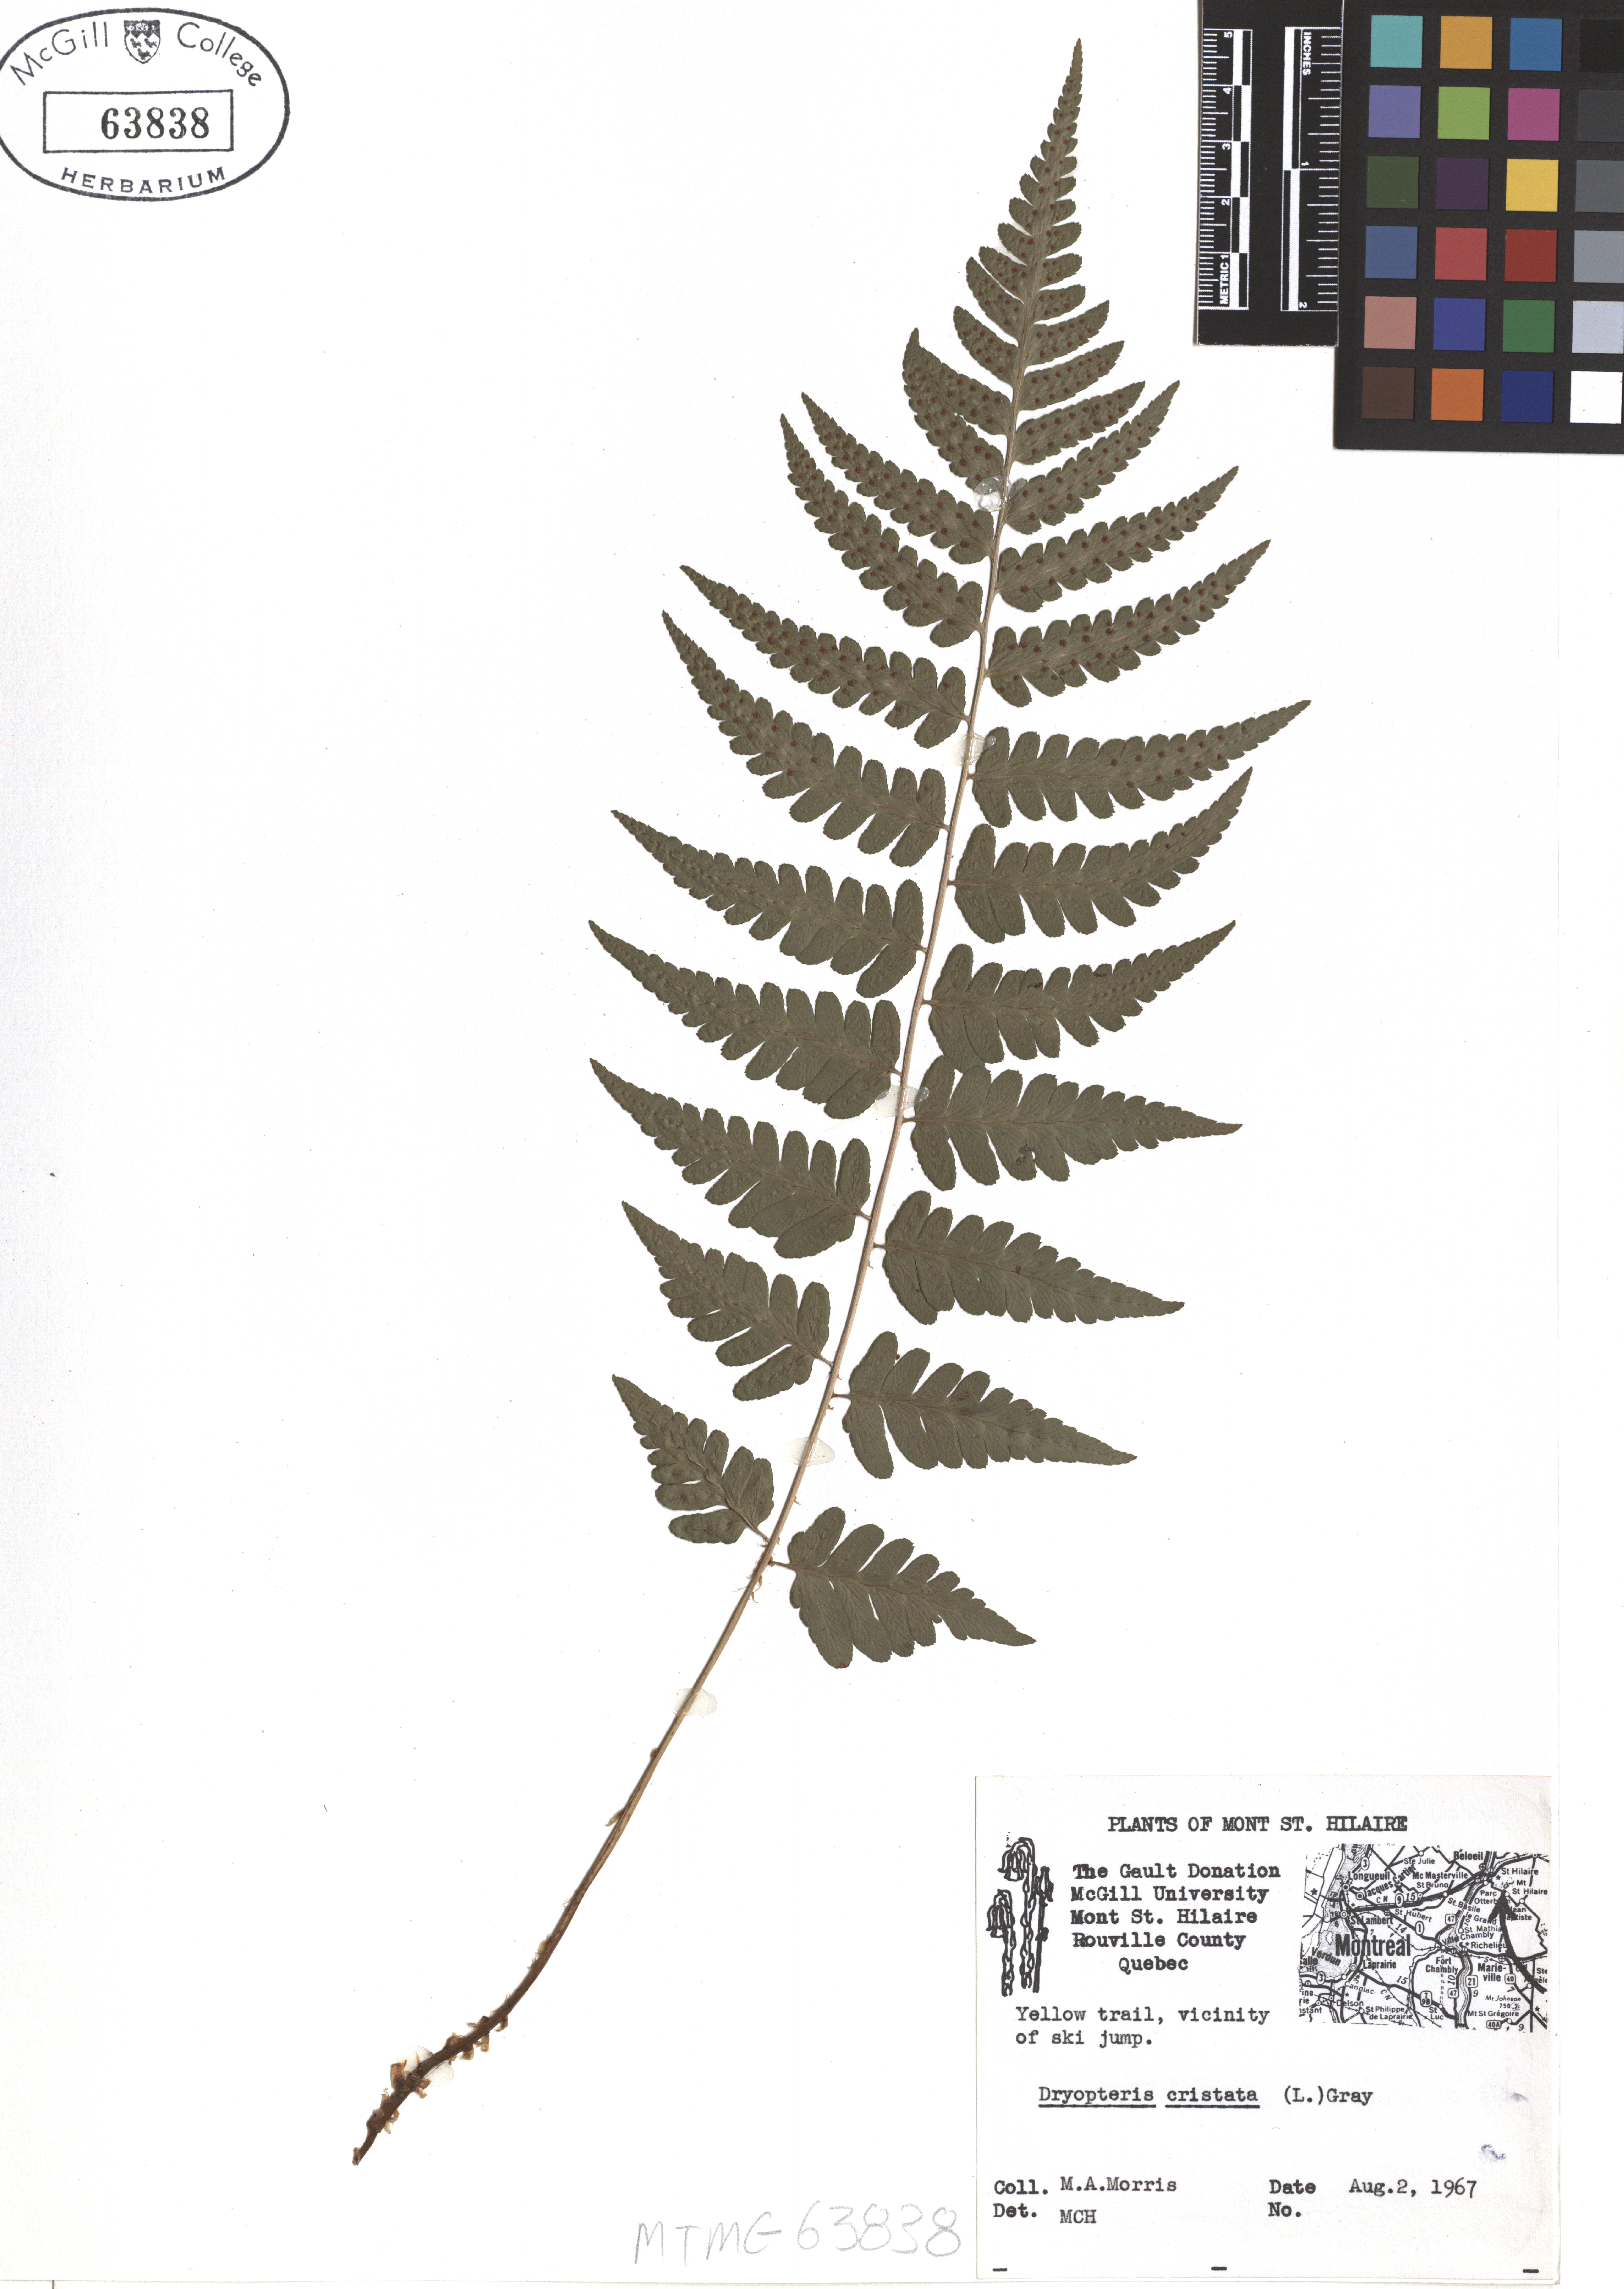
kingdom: Plantae
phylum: Tracheophyta
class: Polypodiopsida
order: Polypodiales
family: Dryopteridaceae
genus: Dryopteris
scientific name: Dryopteris cristata
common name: Crested wood fern
